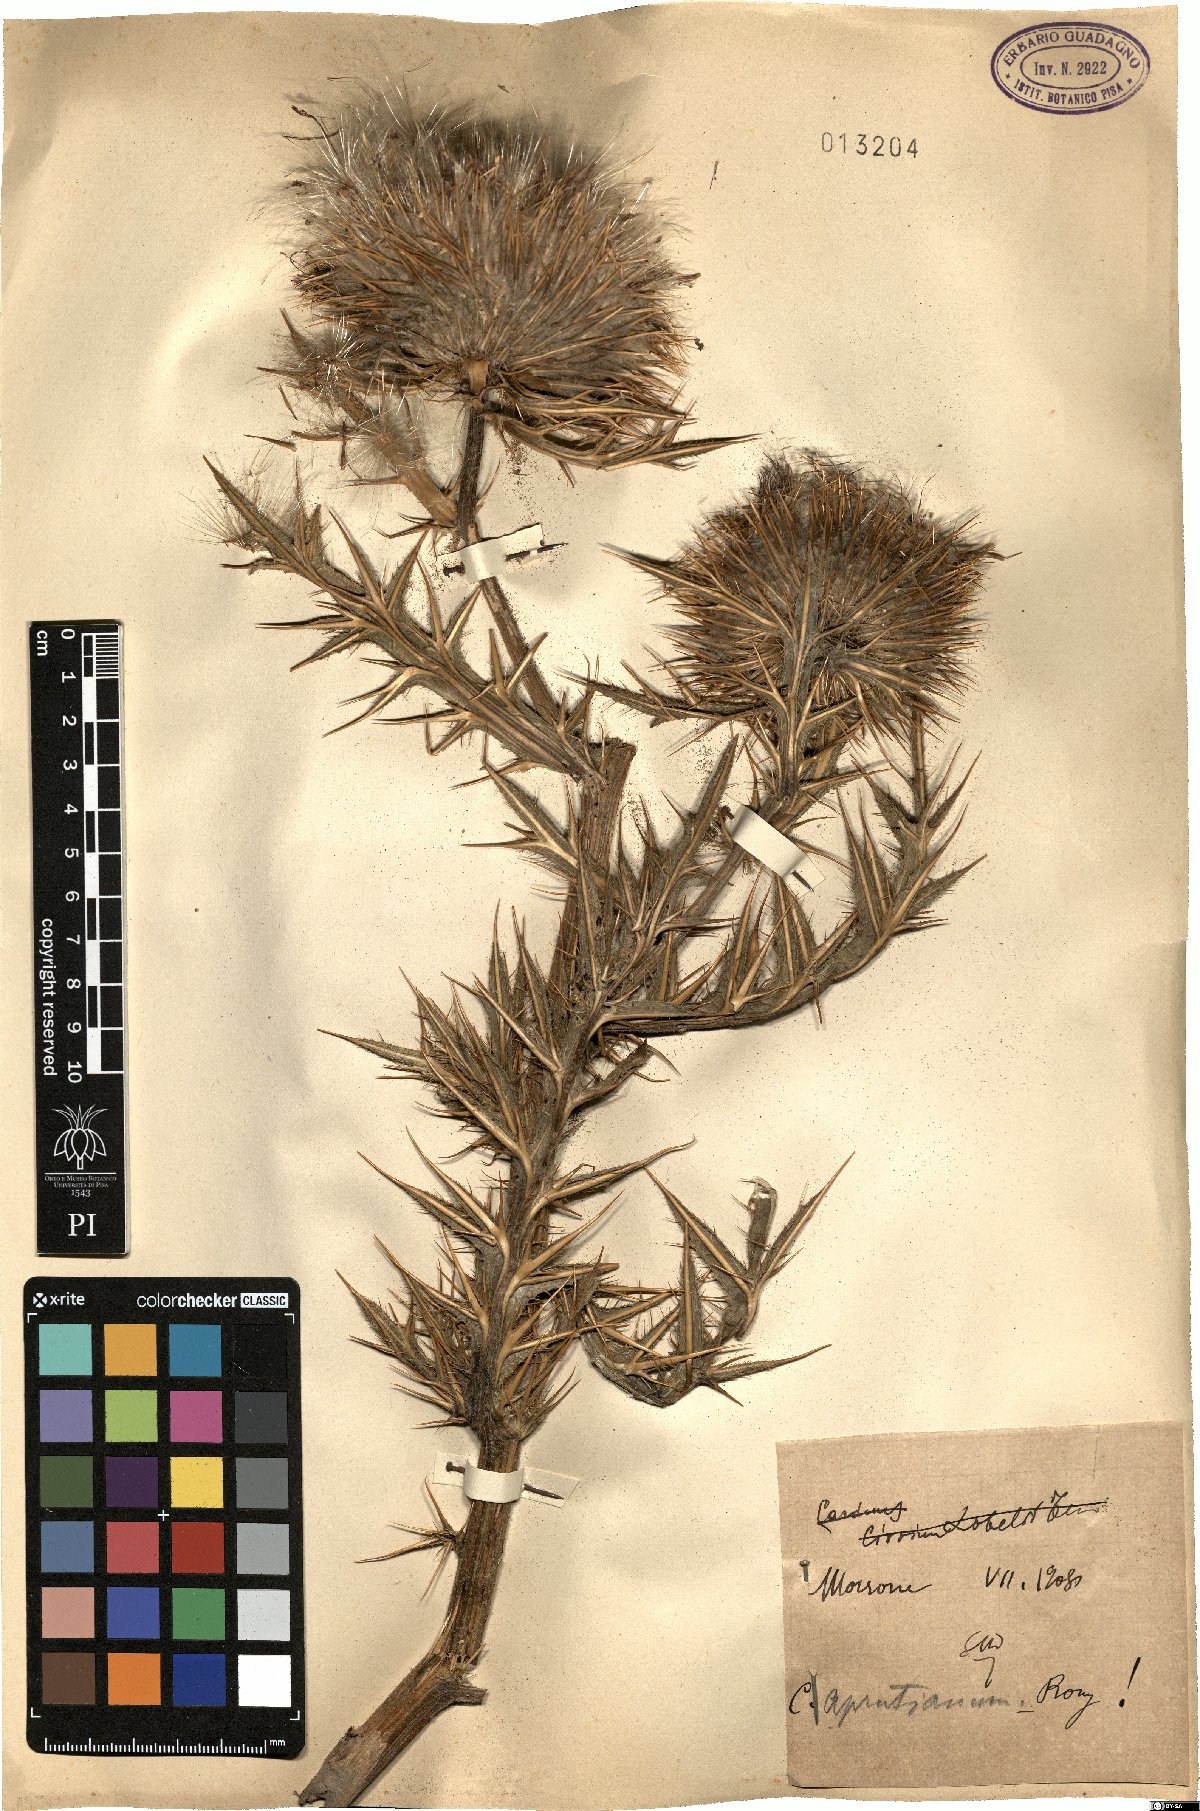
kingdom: Plantae
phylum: Tracheophyta
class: Magnoliopsida
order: Asterales
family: Asteraceae
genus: Lophiolepis
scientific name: Lophiolepis lobelii
